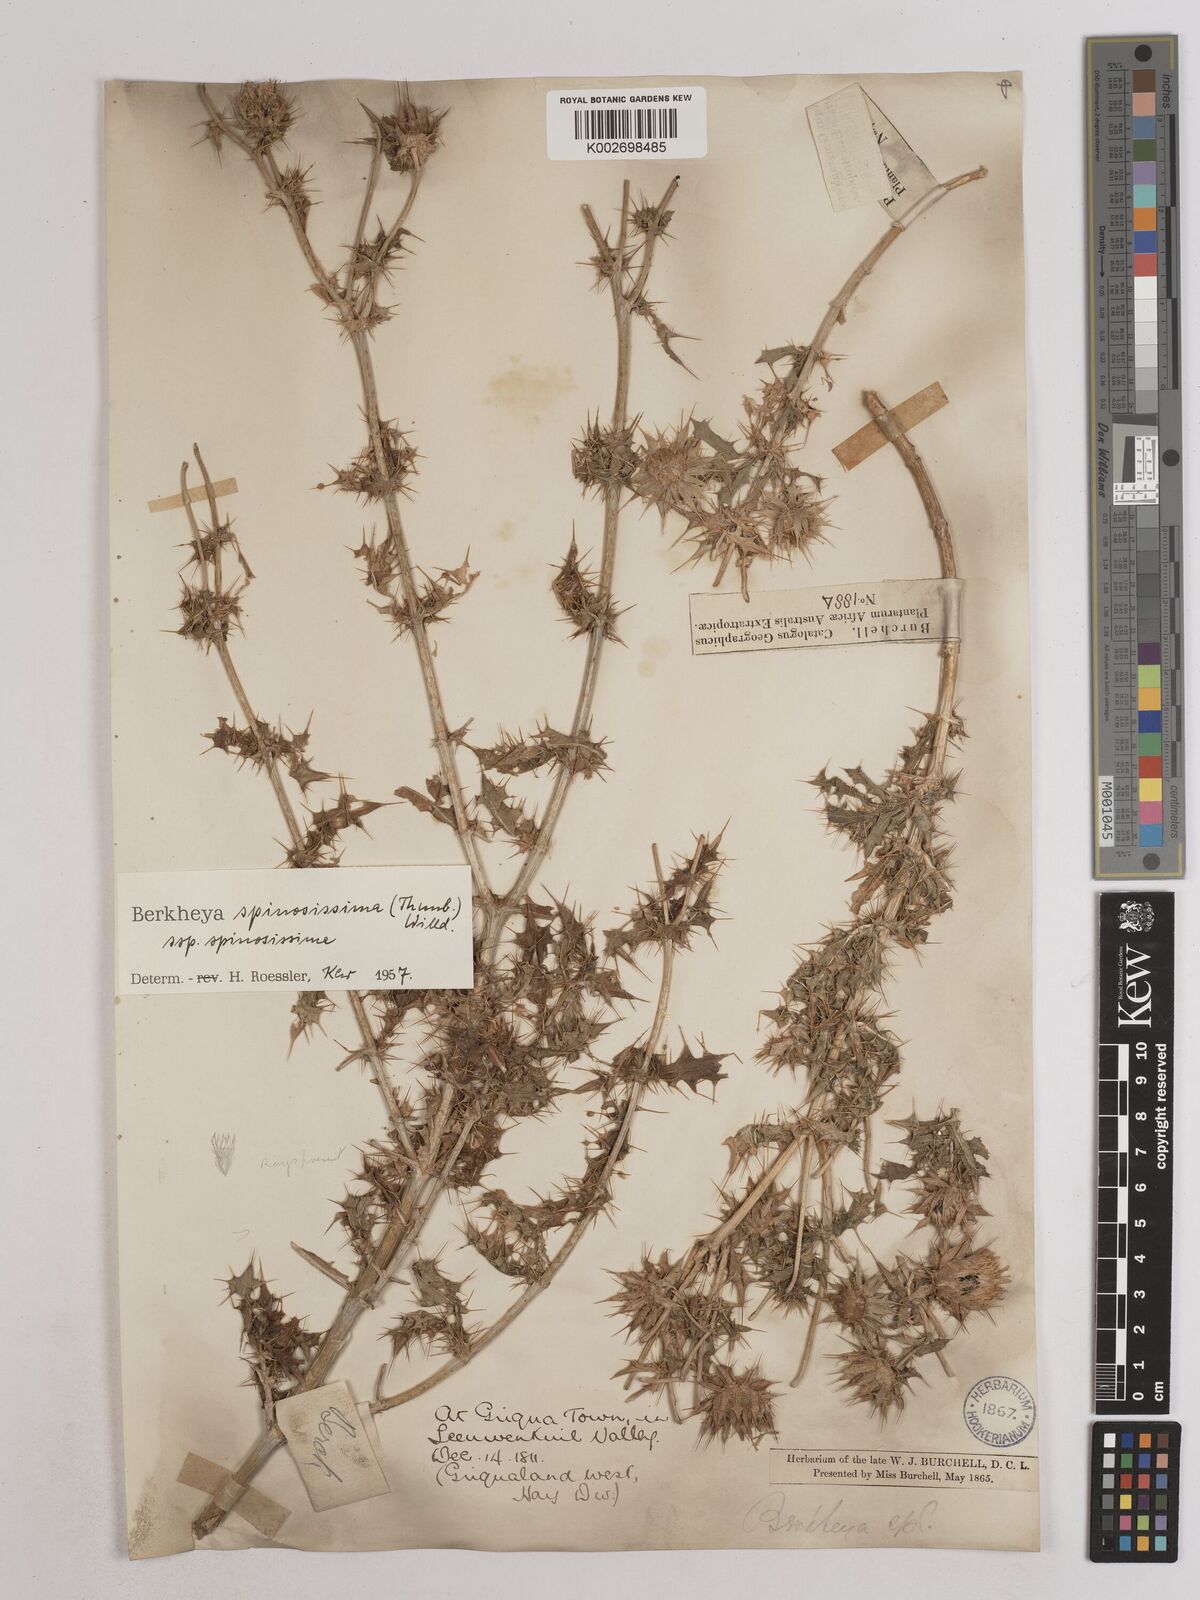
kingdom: Plantae
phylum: Tracheophyta
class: Magnoliopsida
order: Asterales
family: Asteraceae
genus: Berkheya
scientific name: Berkheya spinosissima
